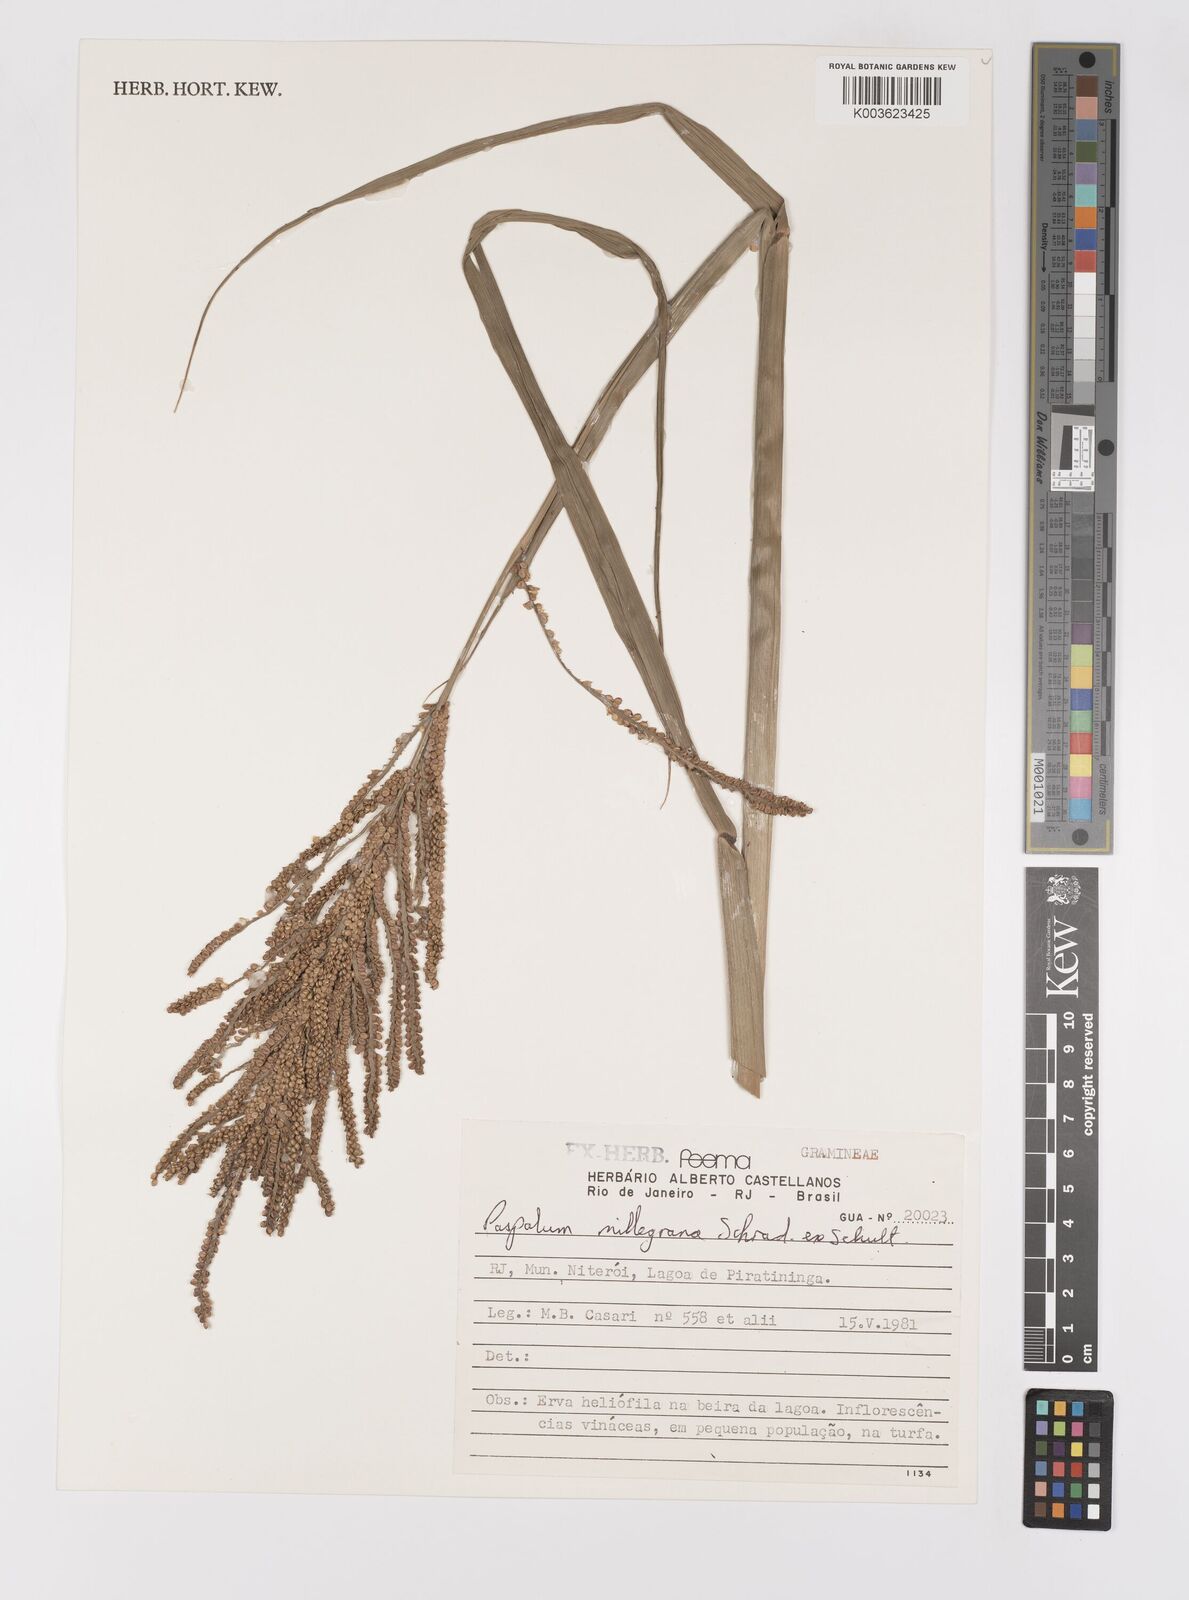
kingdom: Plantae
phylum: Tracheophyta
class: Liliopsida
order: Poales
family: Poaceae
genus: Paspalum
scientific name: Paspalum millegranum
